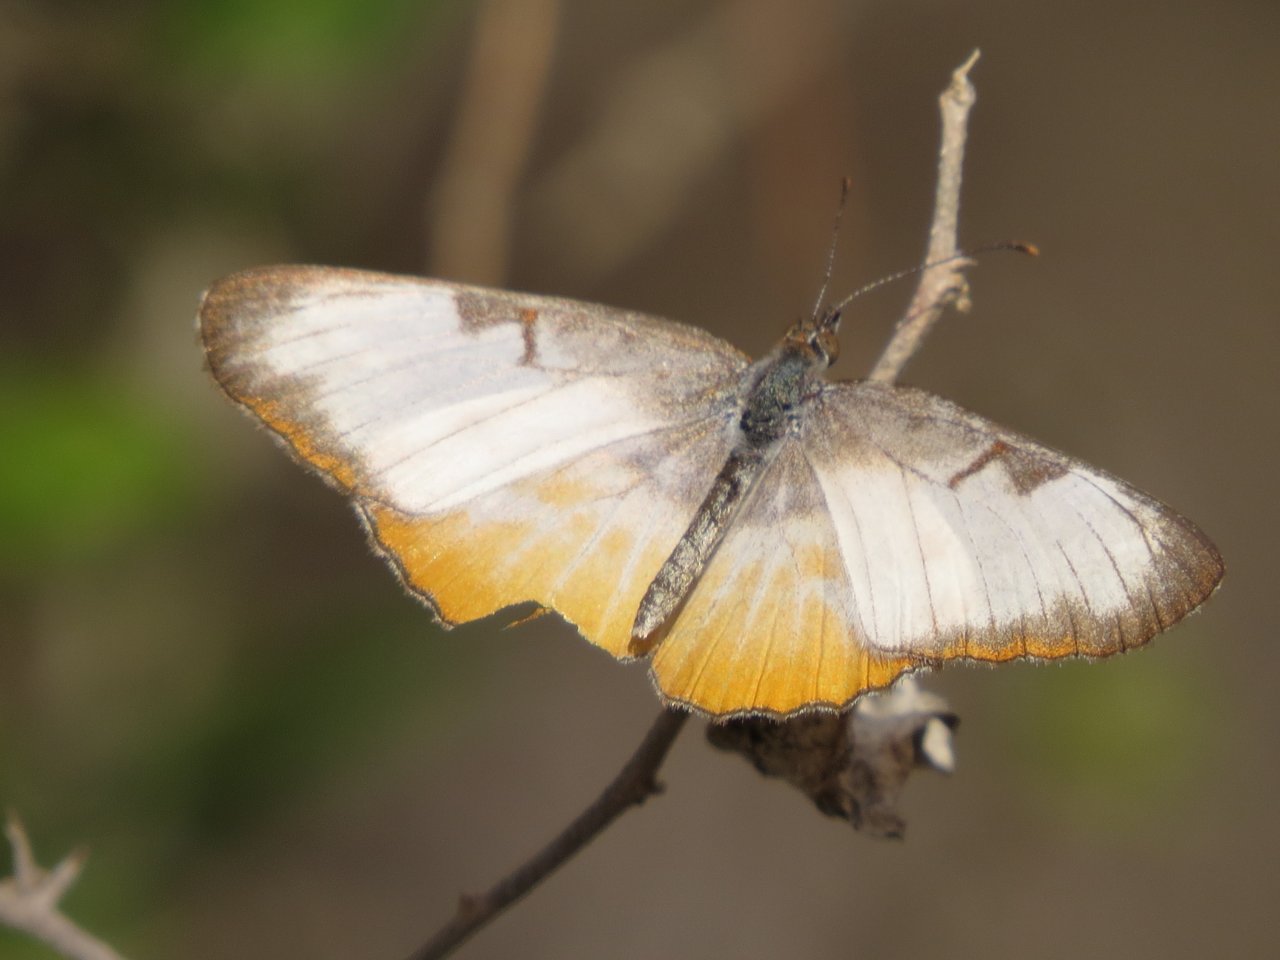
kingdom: Animalia
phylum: Arthropoda
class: Insecta
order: Lepidoptera
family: Nymphalidae
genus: Mestra
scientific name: Mestra amymone
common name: Common Mestra
